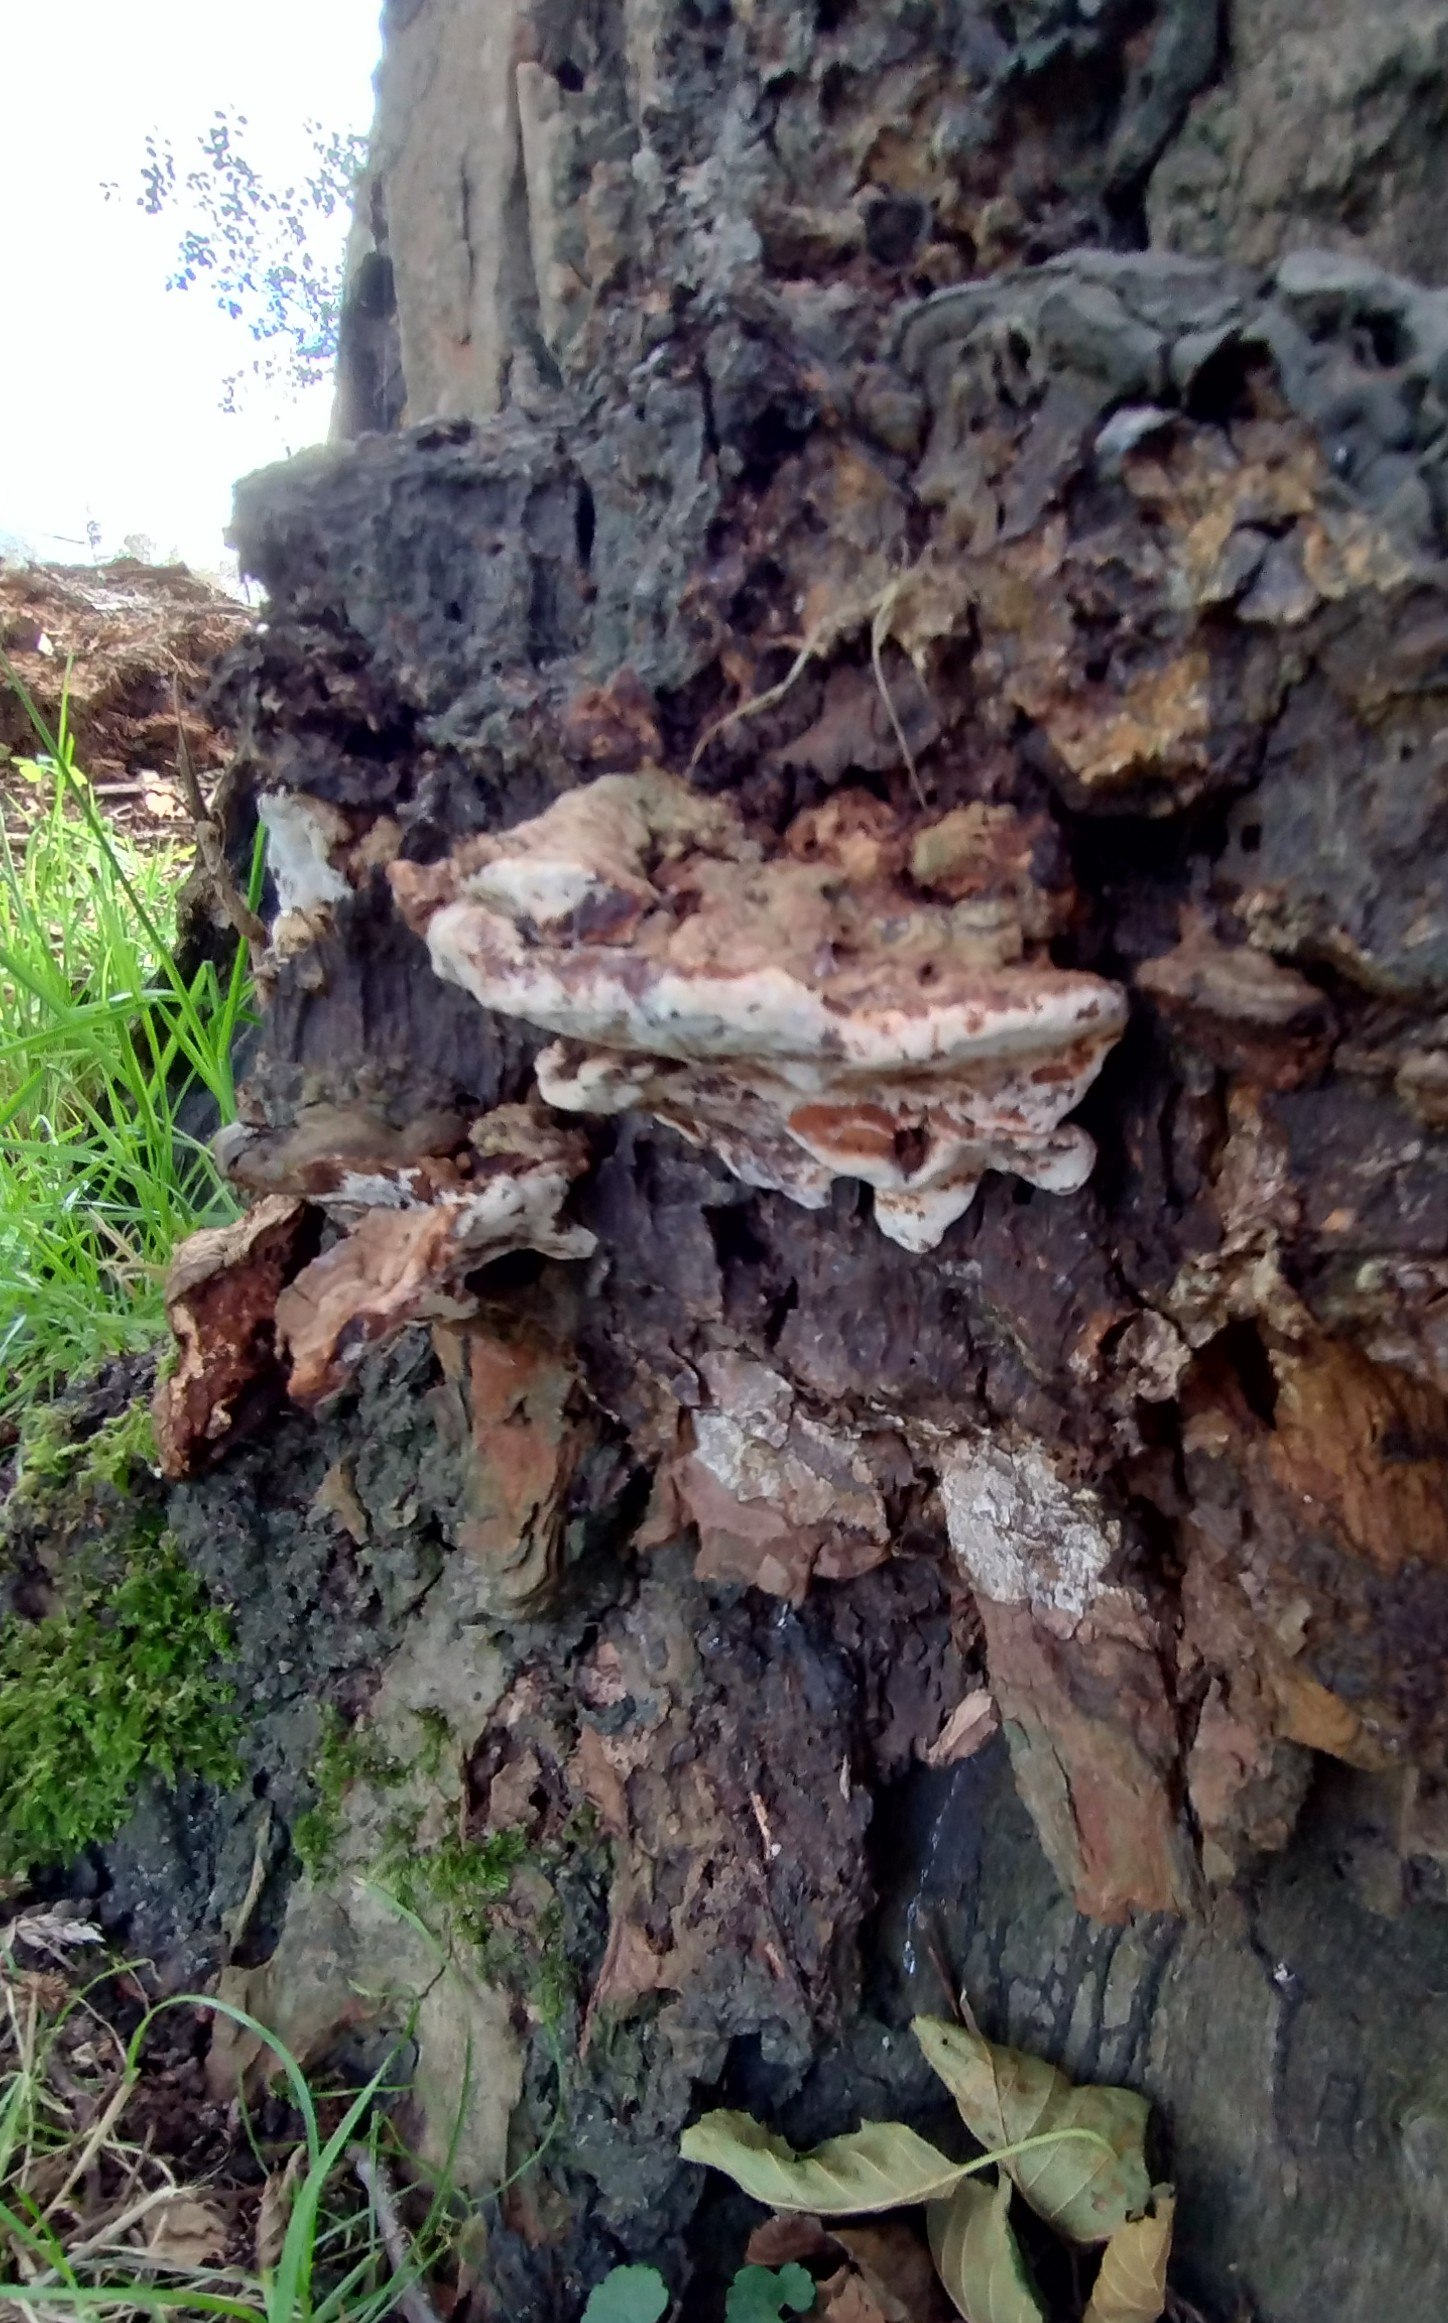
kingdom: Fungi
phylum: Basidiomycota
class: Agaricomycetes
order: Polyporales
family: Polyporaceae
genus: Ganoderma
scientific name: Ganoderma adspersum
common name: grov lakporesvamp
